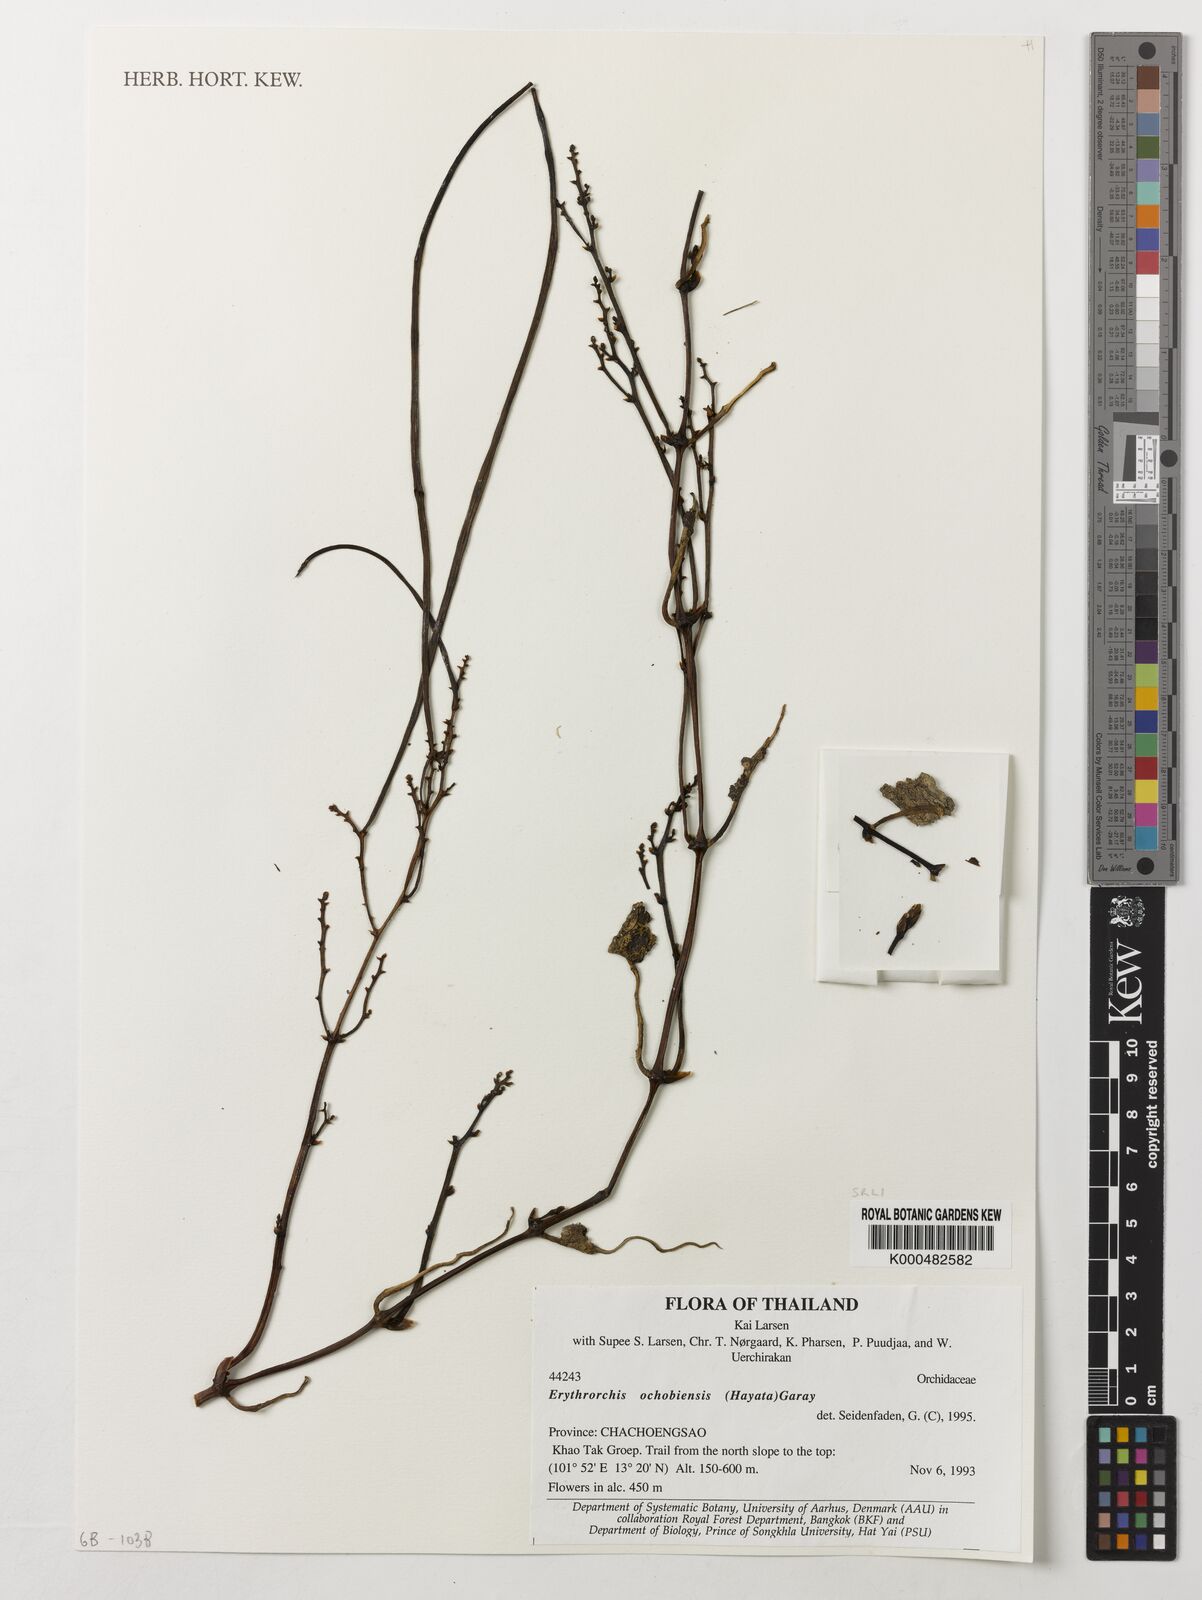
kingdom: Plantae
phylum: Tracheophyta
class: Liliopsida
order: Asparagales
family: Orchidaceae
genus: Erythrorchis
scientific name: Erythrorchis altissima
